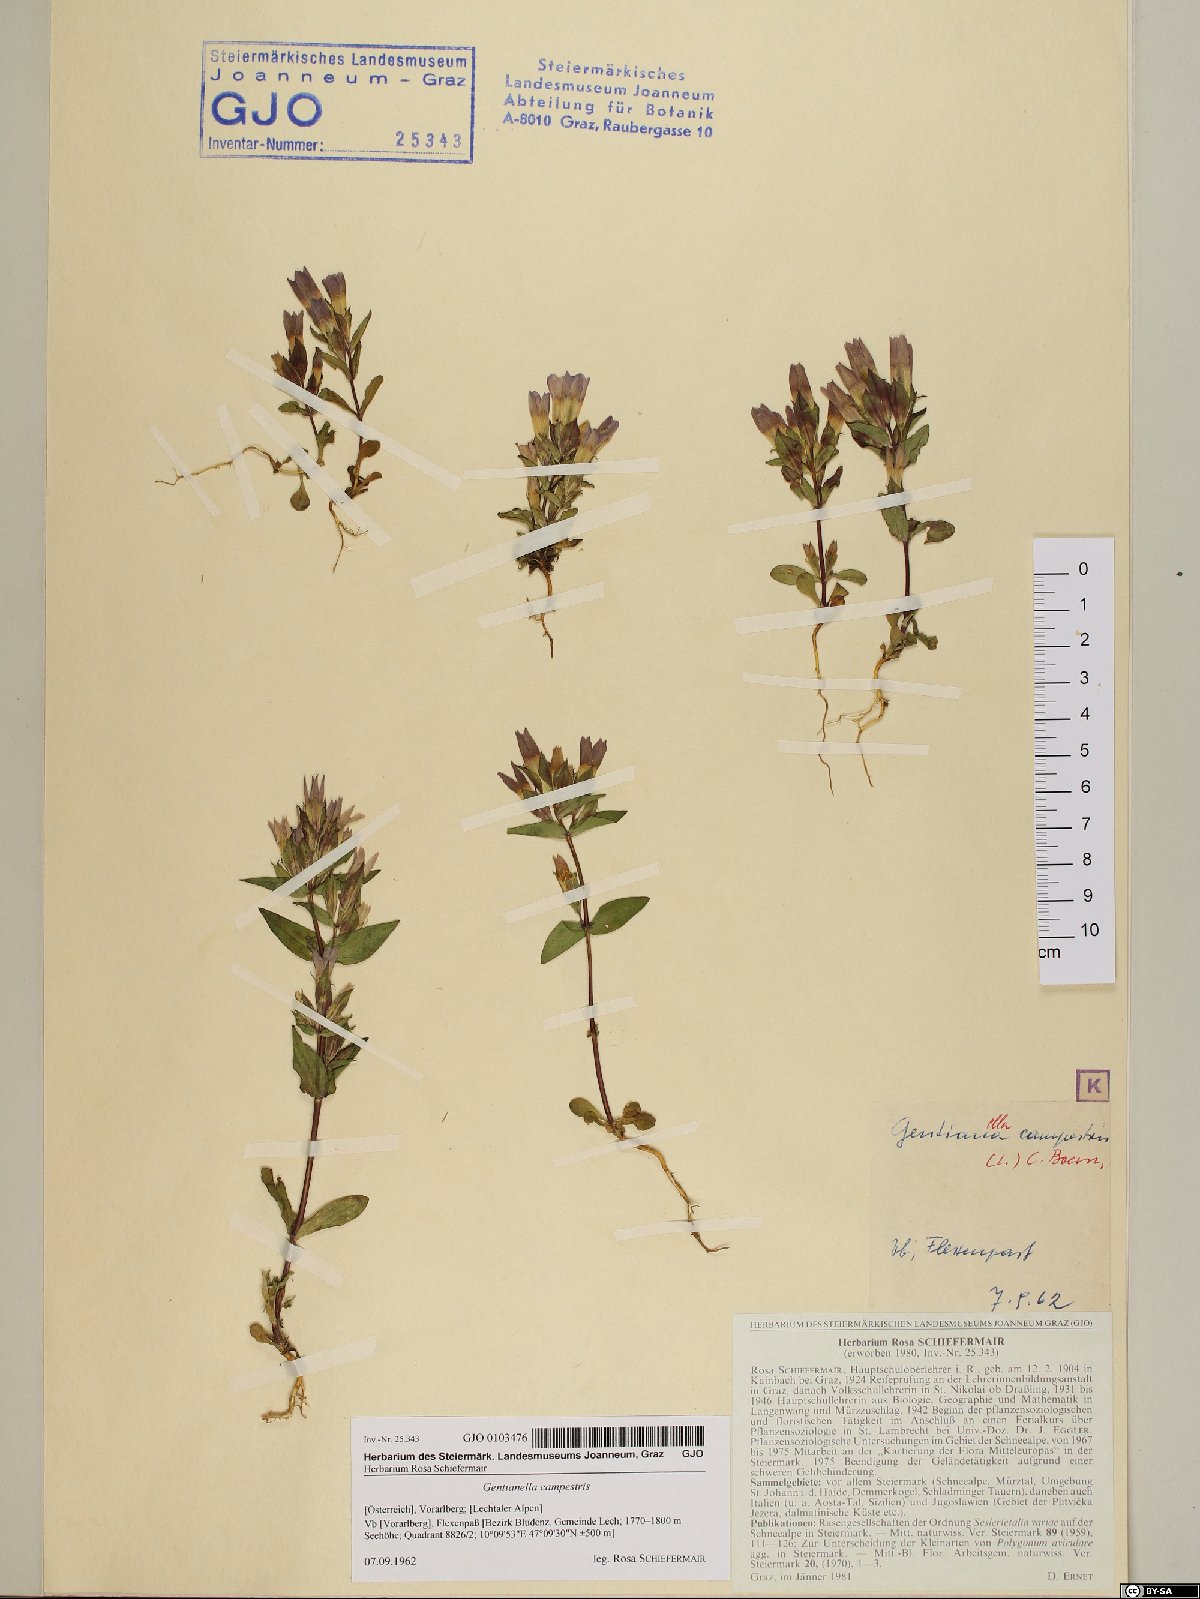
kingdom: Plantae
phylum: Tracheophyta
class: Magnoliopsida
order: Gentianales
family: Gentianaceae
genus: Gentianella
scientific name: Gentianella campestris
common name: Field gentian
